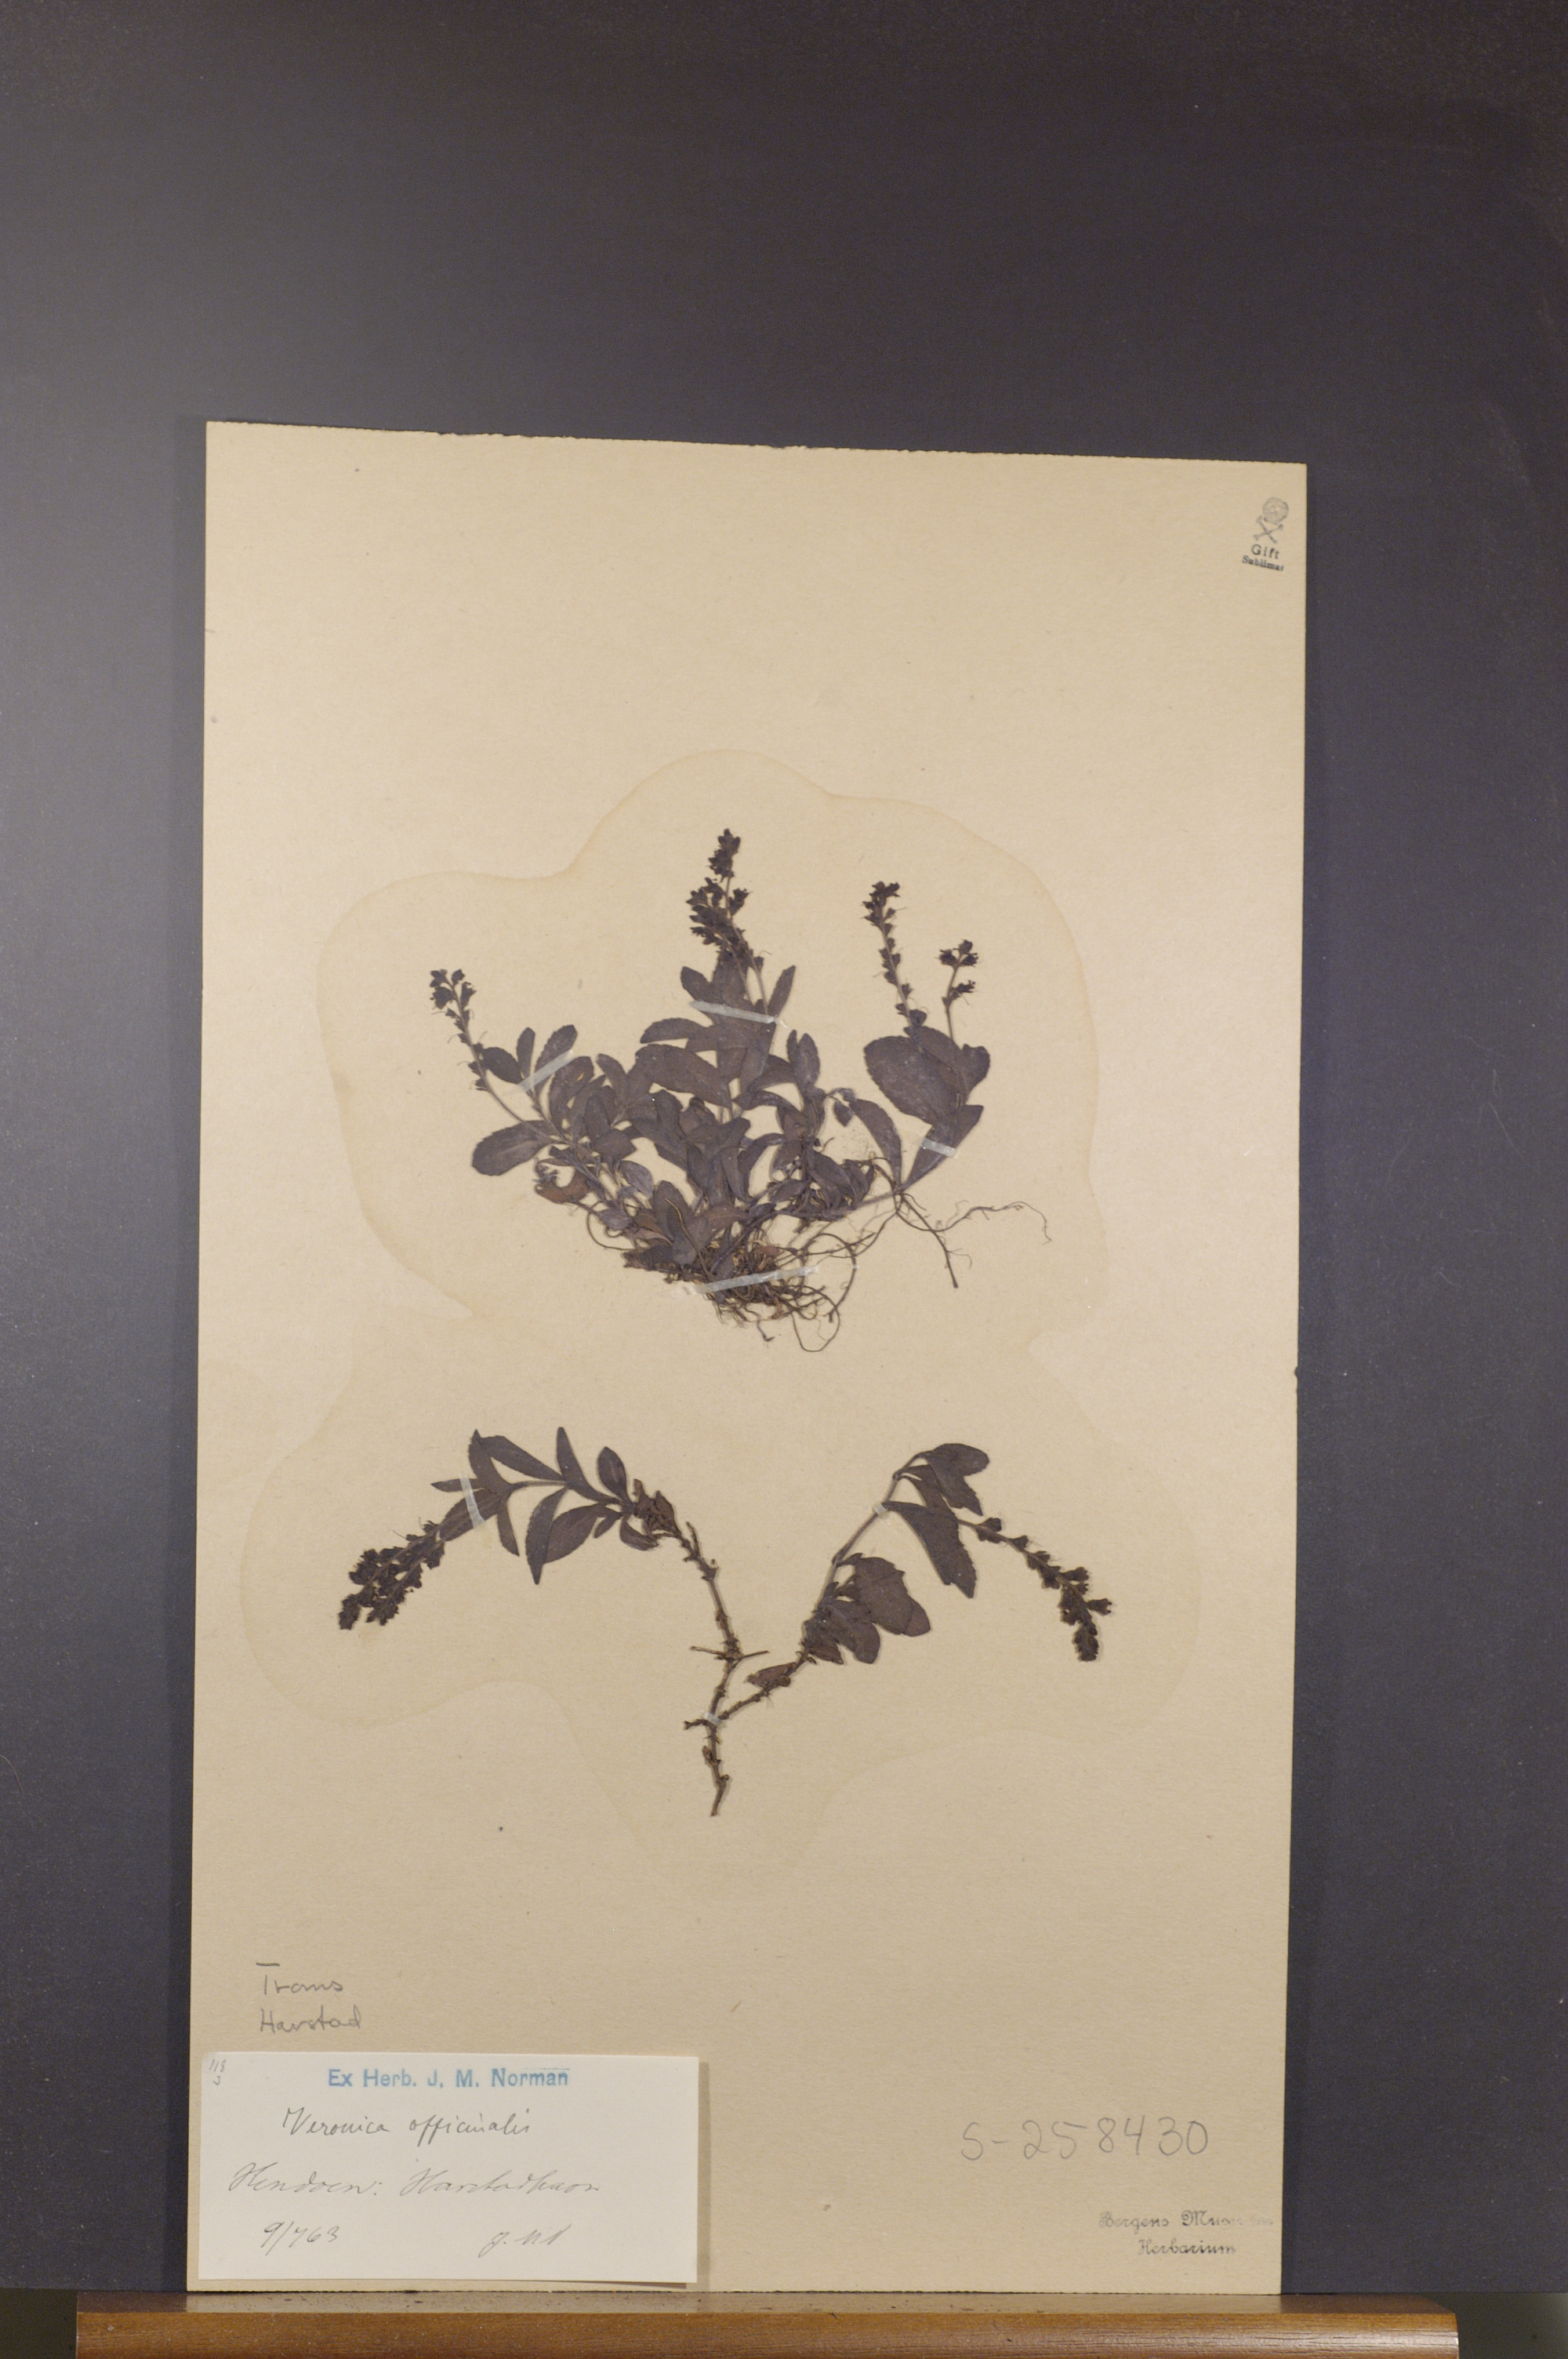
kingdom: Plantae
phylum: Tracheophyta
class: Magnoliopsida
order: Lamiales
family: Plantaginaceae
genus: Veronica
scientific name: Veronica officinalis
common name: Common speedwell
